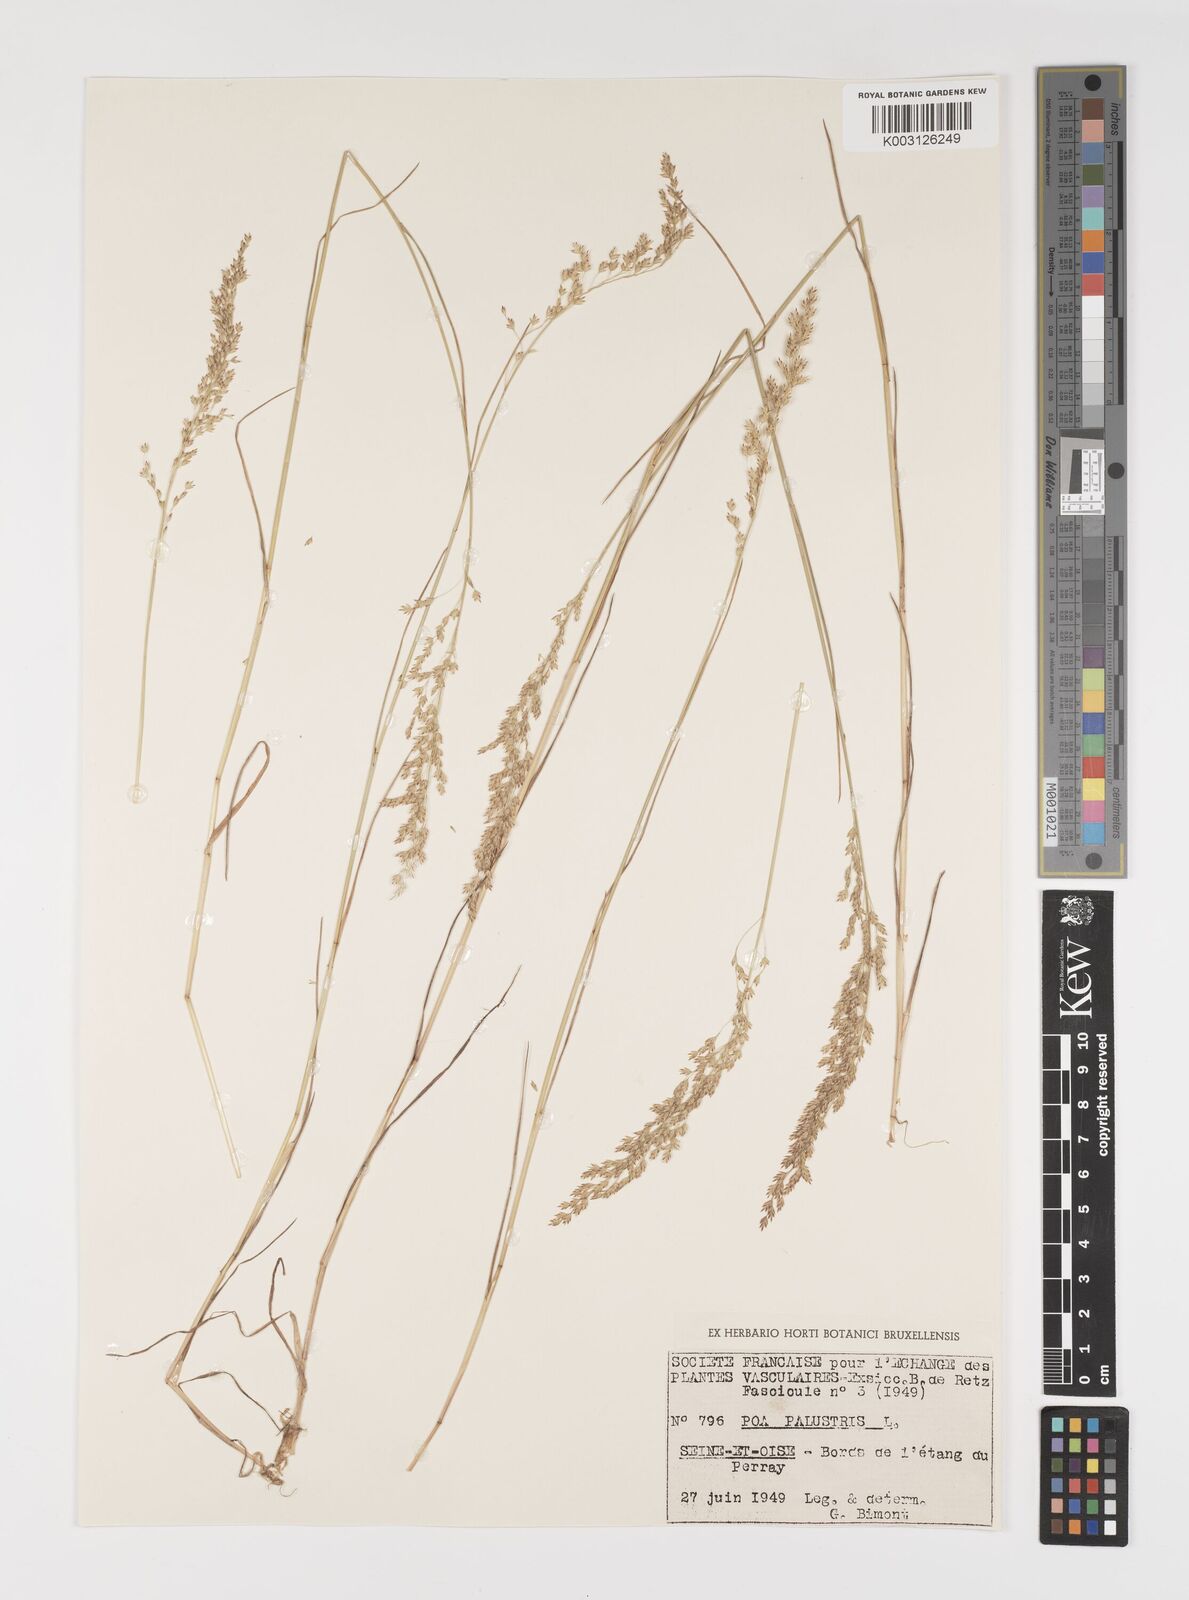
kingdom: Plantae
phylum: Tracheophyta
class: Liliopsida
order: Poales
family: Poaceae
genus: Poa
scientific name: Poa palustris
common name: Swamp meadow-grass
